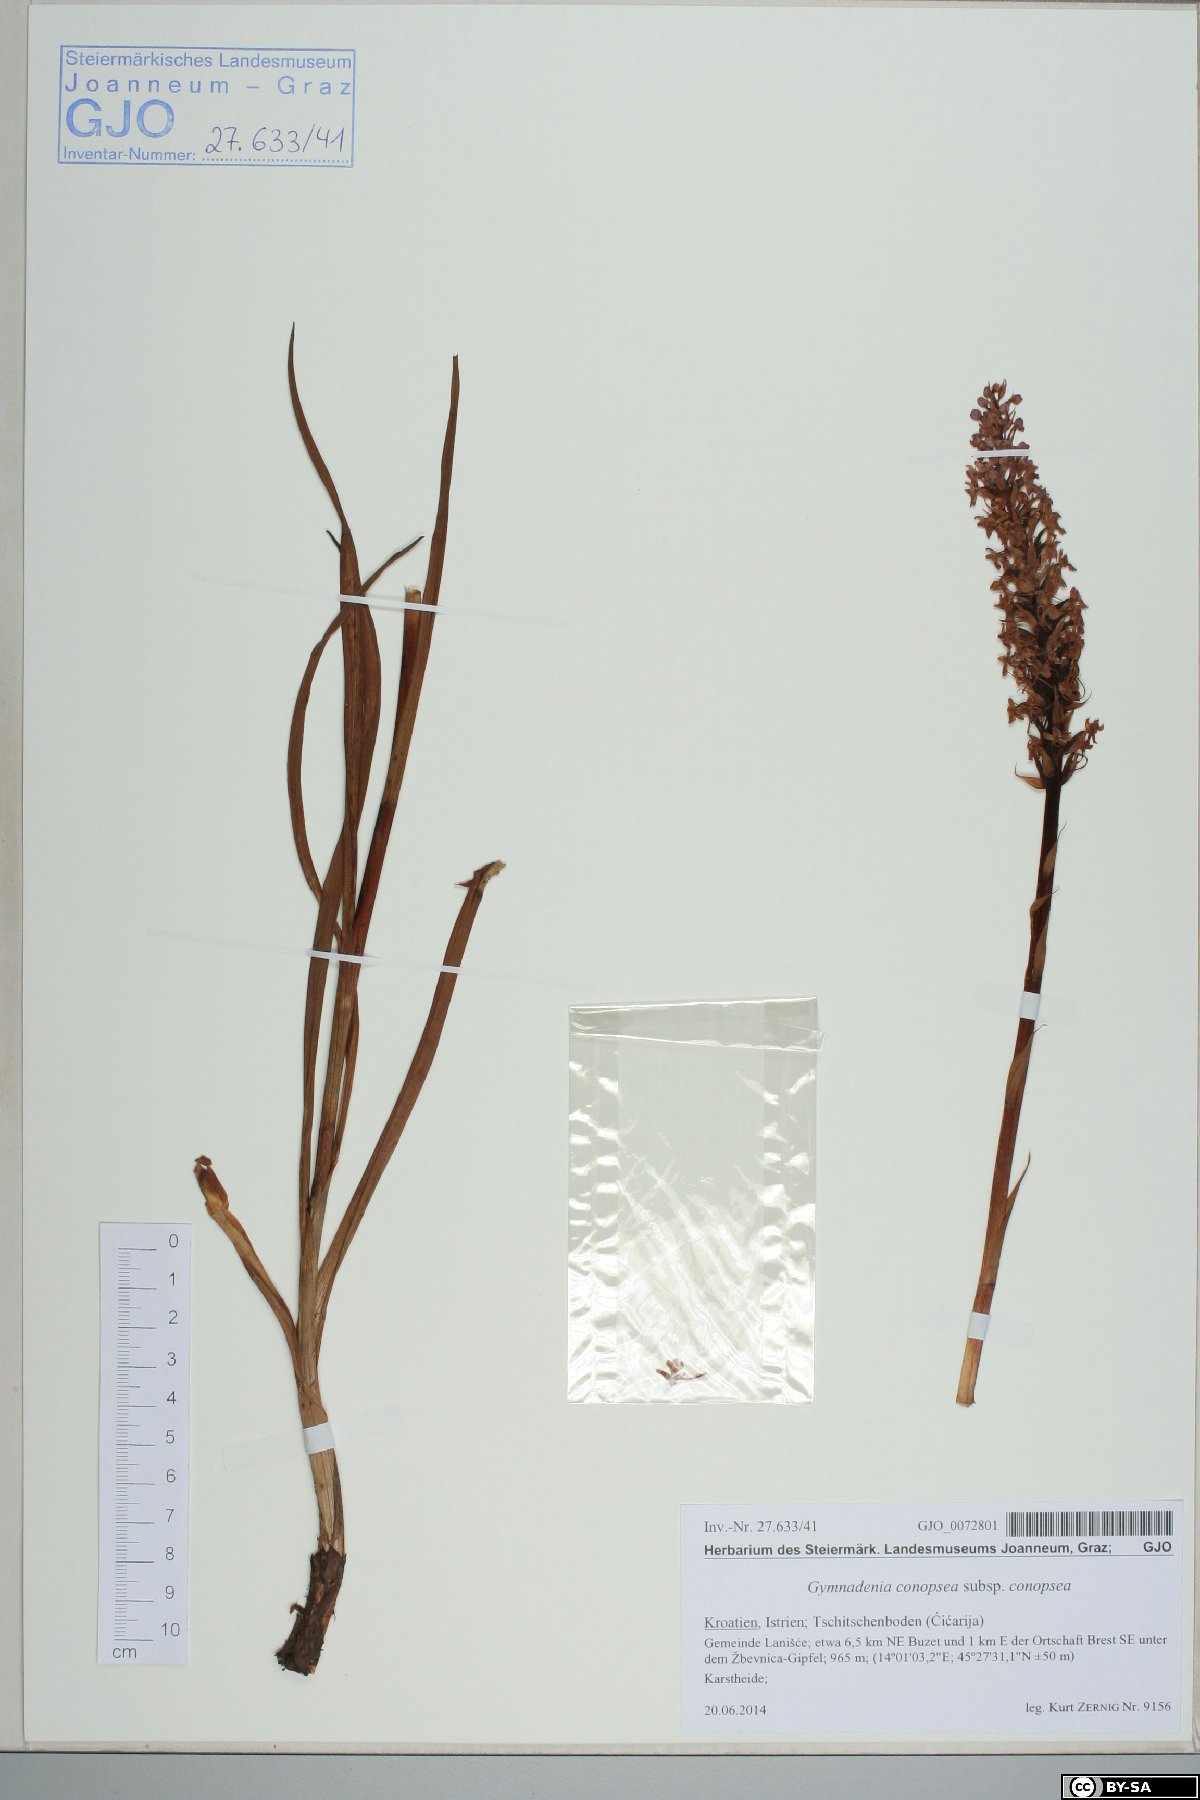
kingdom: Plantae
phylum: Tracheophyta
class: Liliopsida
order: Asparagales
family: Orchidaceae
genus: Gymnadenia
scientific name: Gymnadenia conopsea
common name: Fragrant orchid
